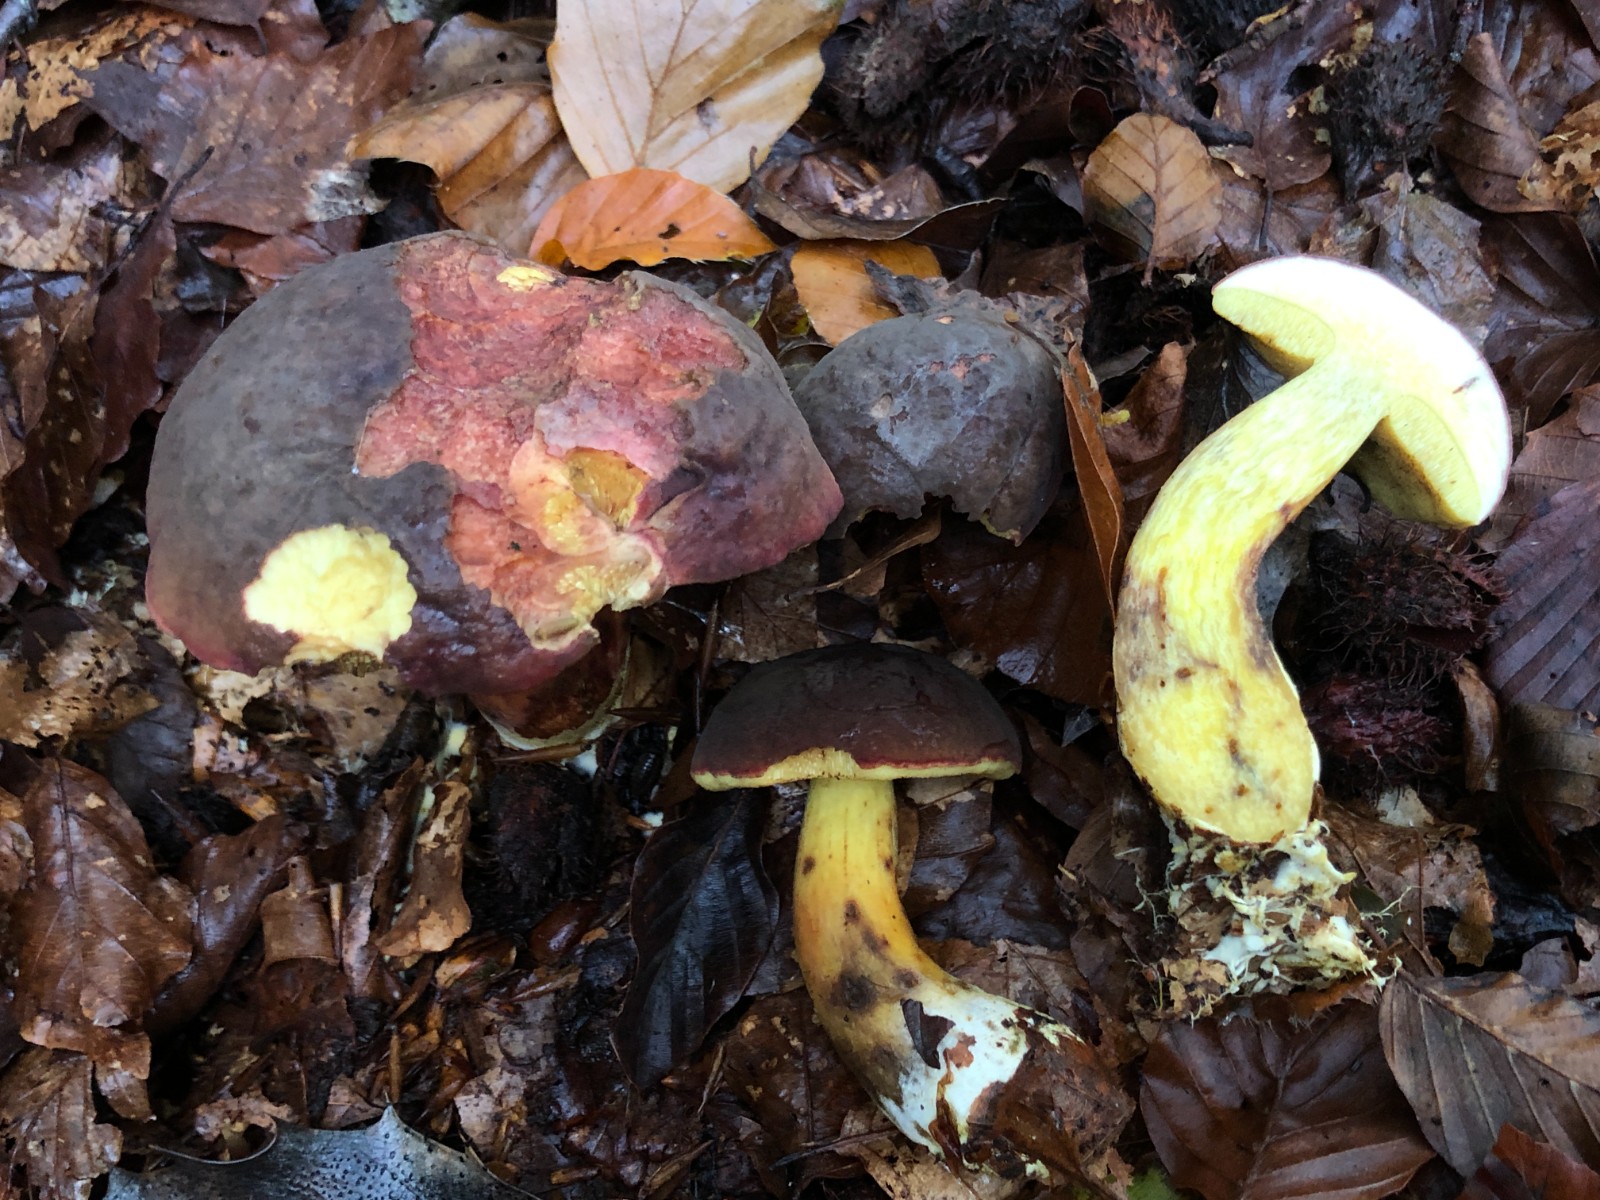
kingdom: Fungi
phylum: Basidiomycota
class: Agaricomycetes
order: Boletales
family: Boletaceae
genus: Xerocomellus
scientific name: Xerocomellus pruinatus
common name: dugget rørhat
